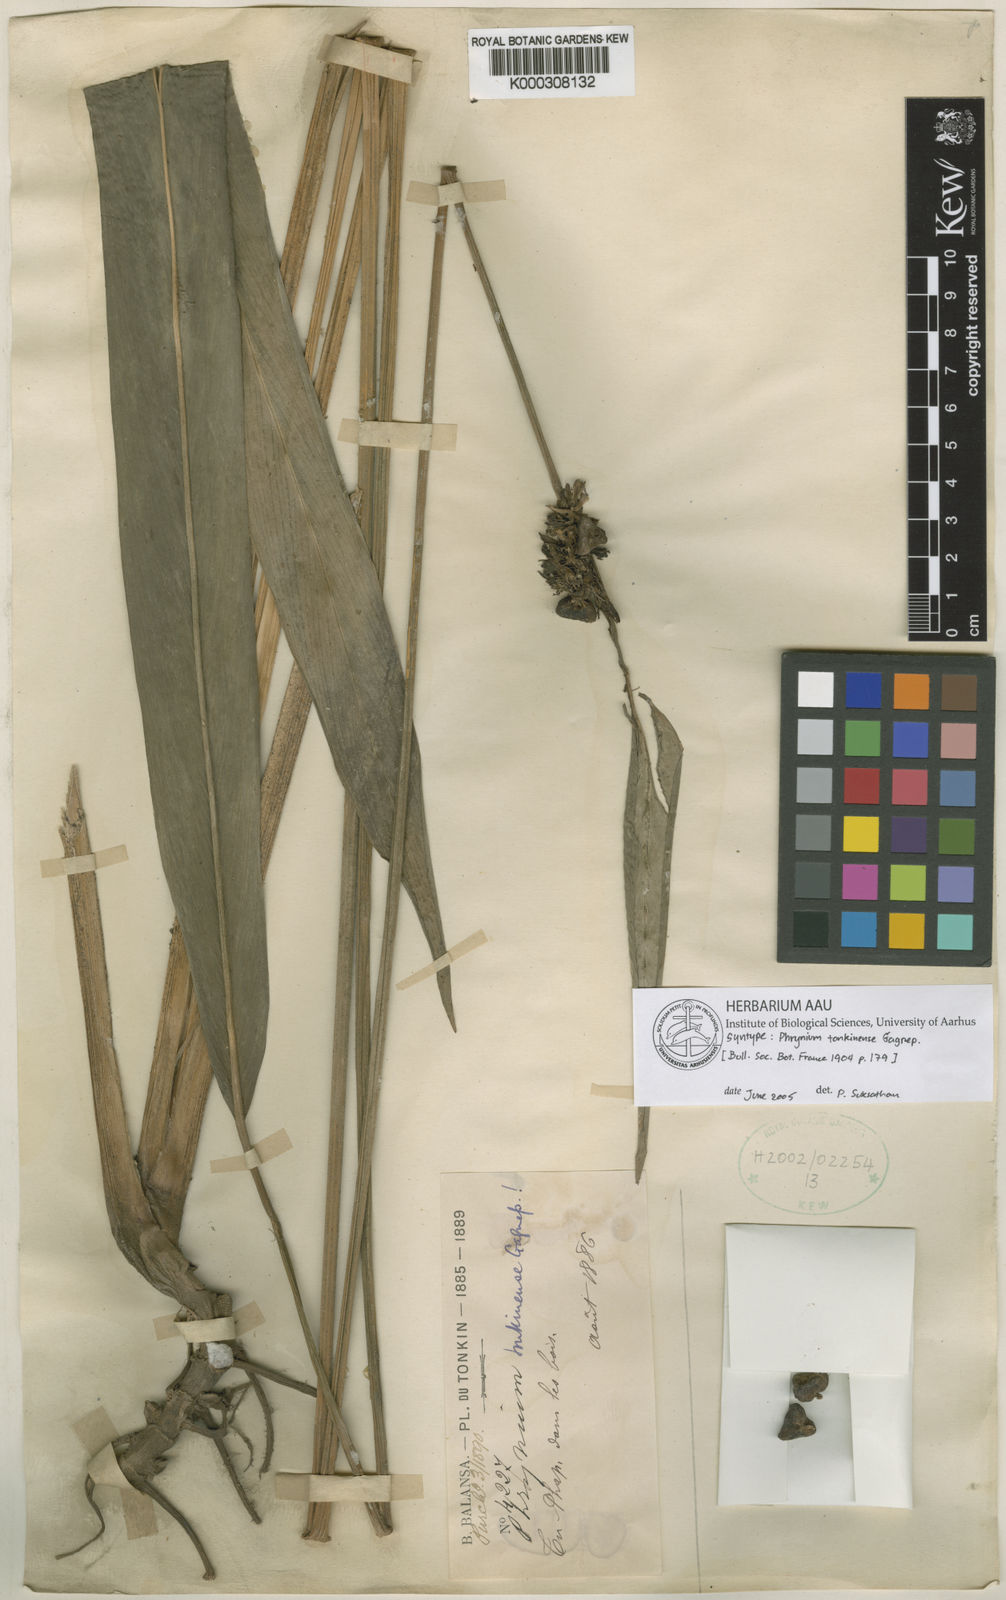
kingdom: Plantae
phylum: Tracheophyta
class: Liliopsida
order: Zingiberales
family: Marantaceae
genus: Phrynium
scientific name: Phrynium tonkinense
